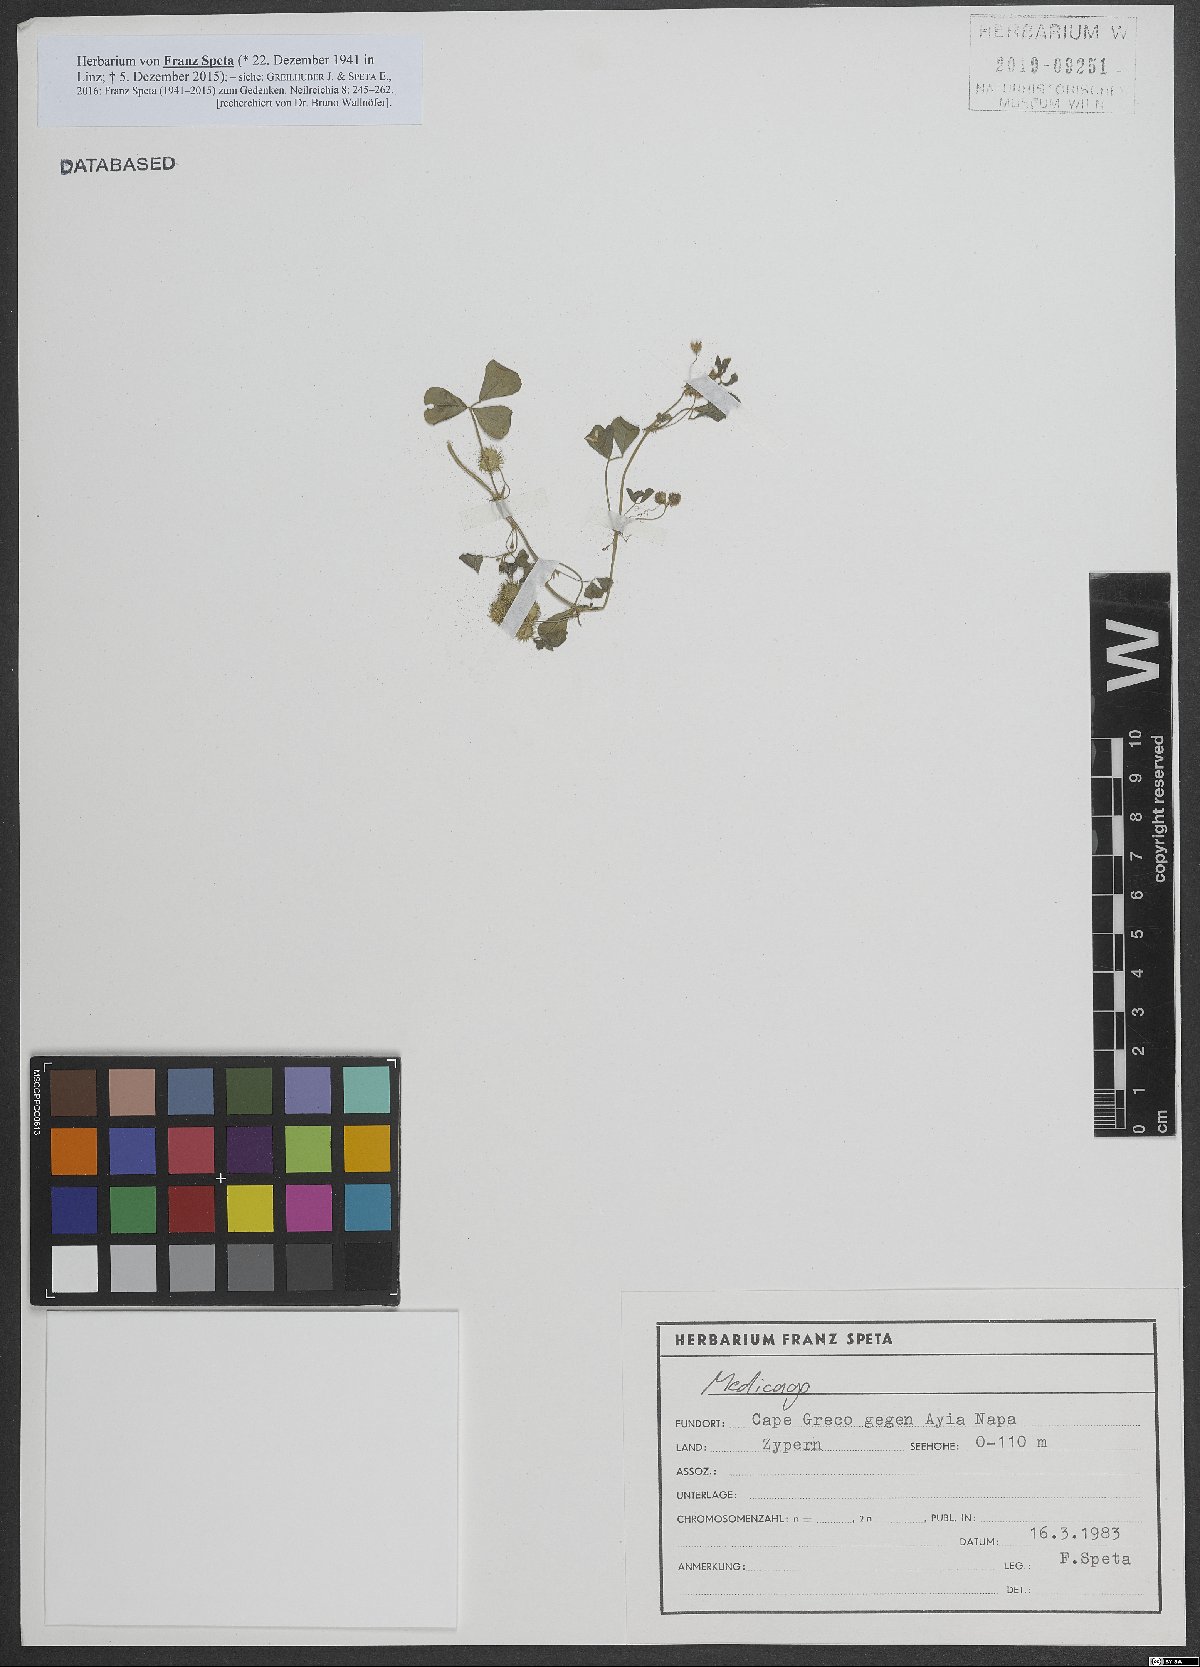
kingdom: Plantae
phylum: Tracheophyta
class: Magnoliopsida
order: Fabales
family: Fabaceae
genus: Medicago
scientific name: Medicago
